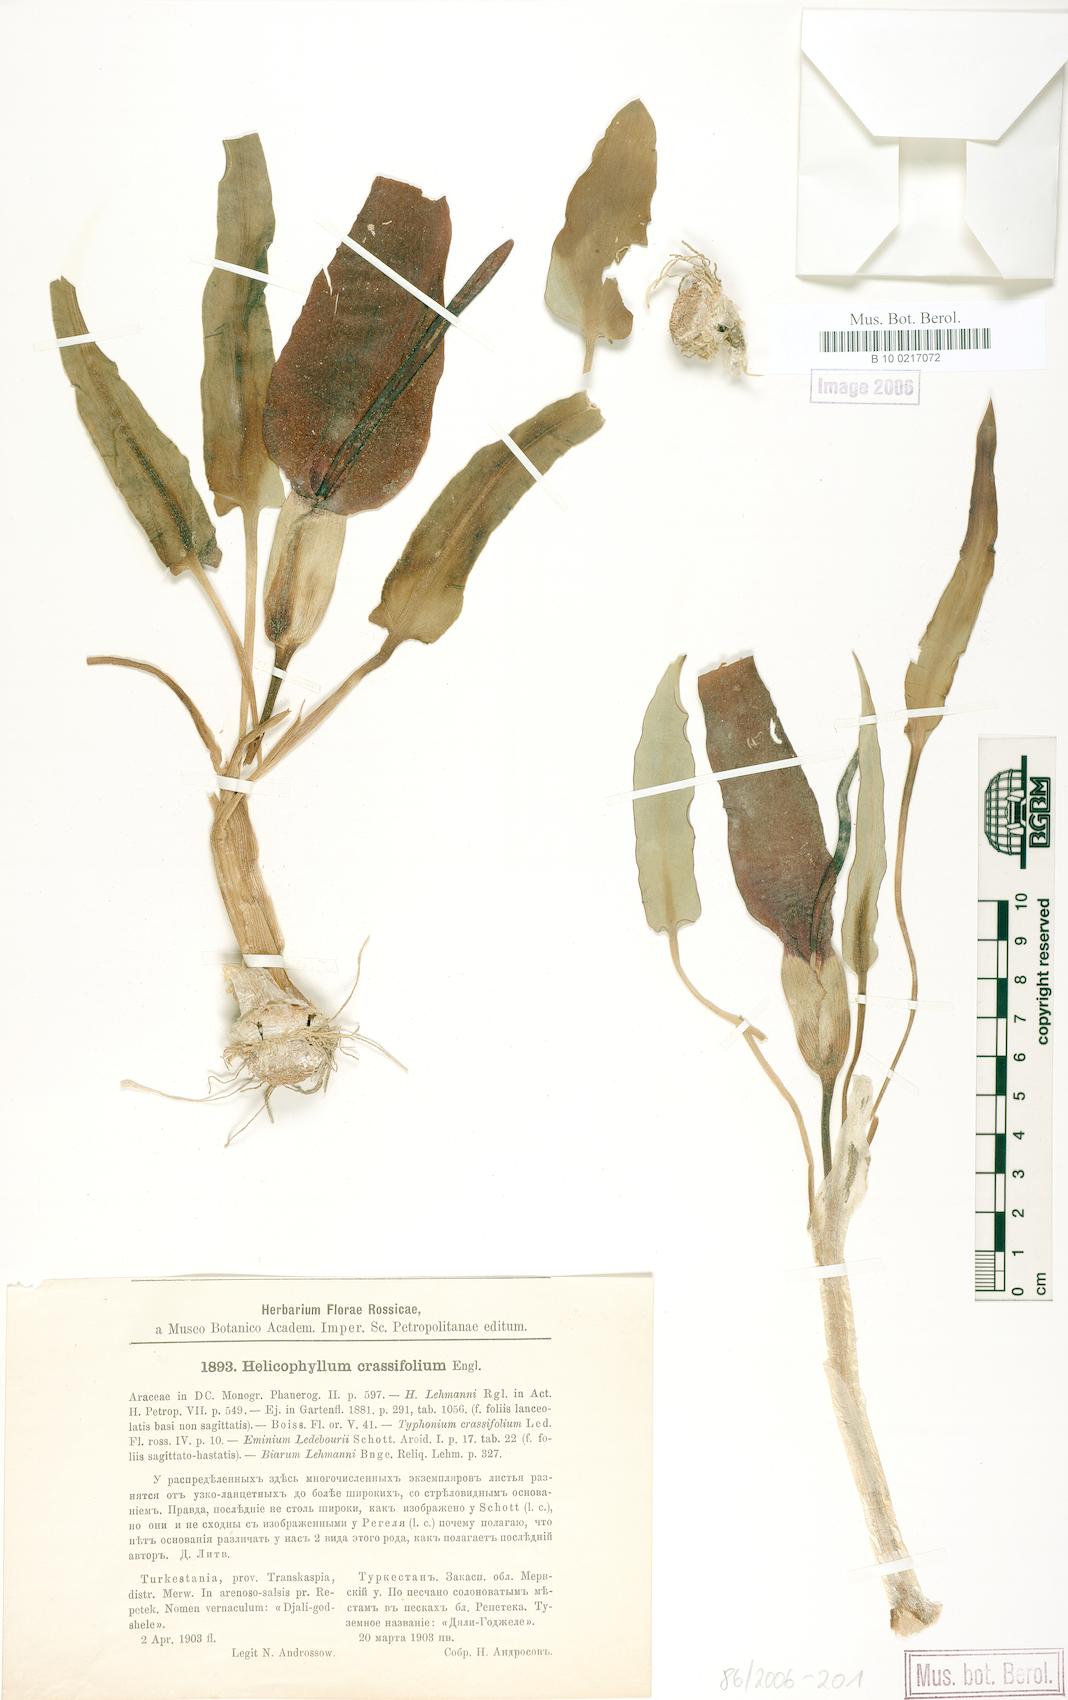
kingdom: Plantae
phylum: Tracheophyta
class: Liliopsida
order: Alismatales
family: Araceae
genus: Eminium
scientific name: Eminium lehmannii
